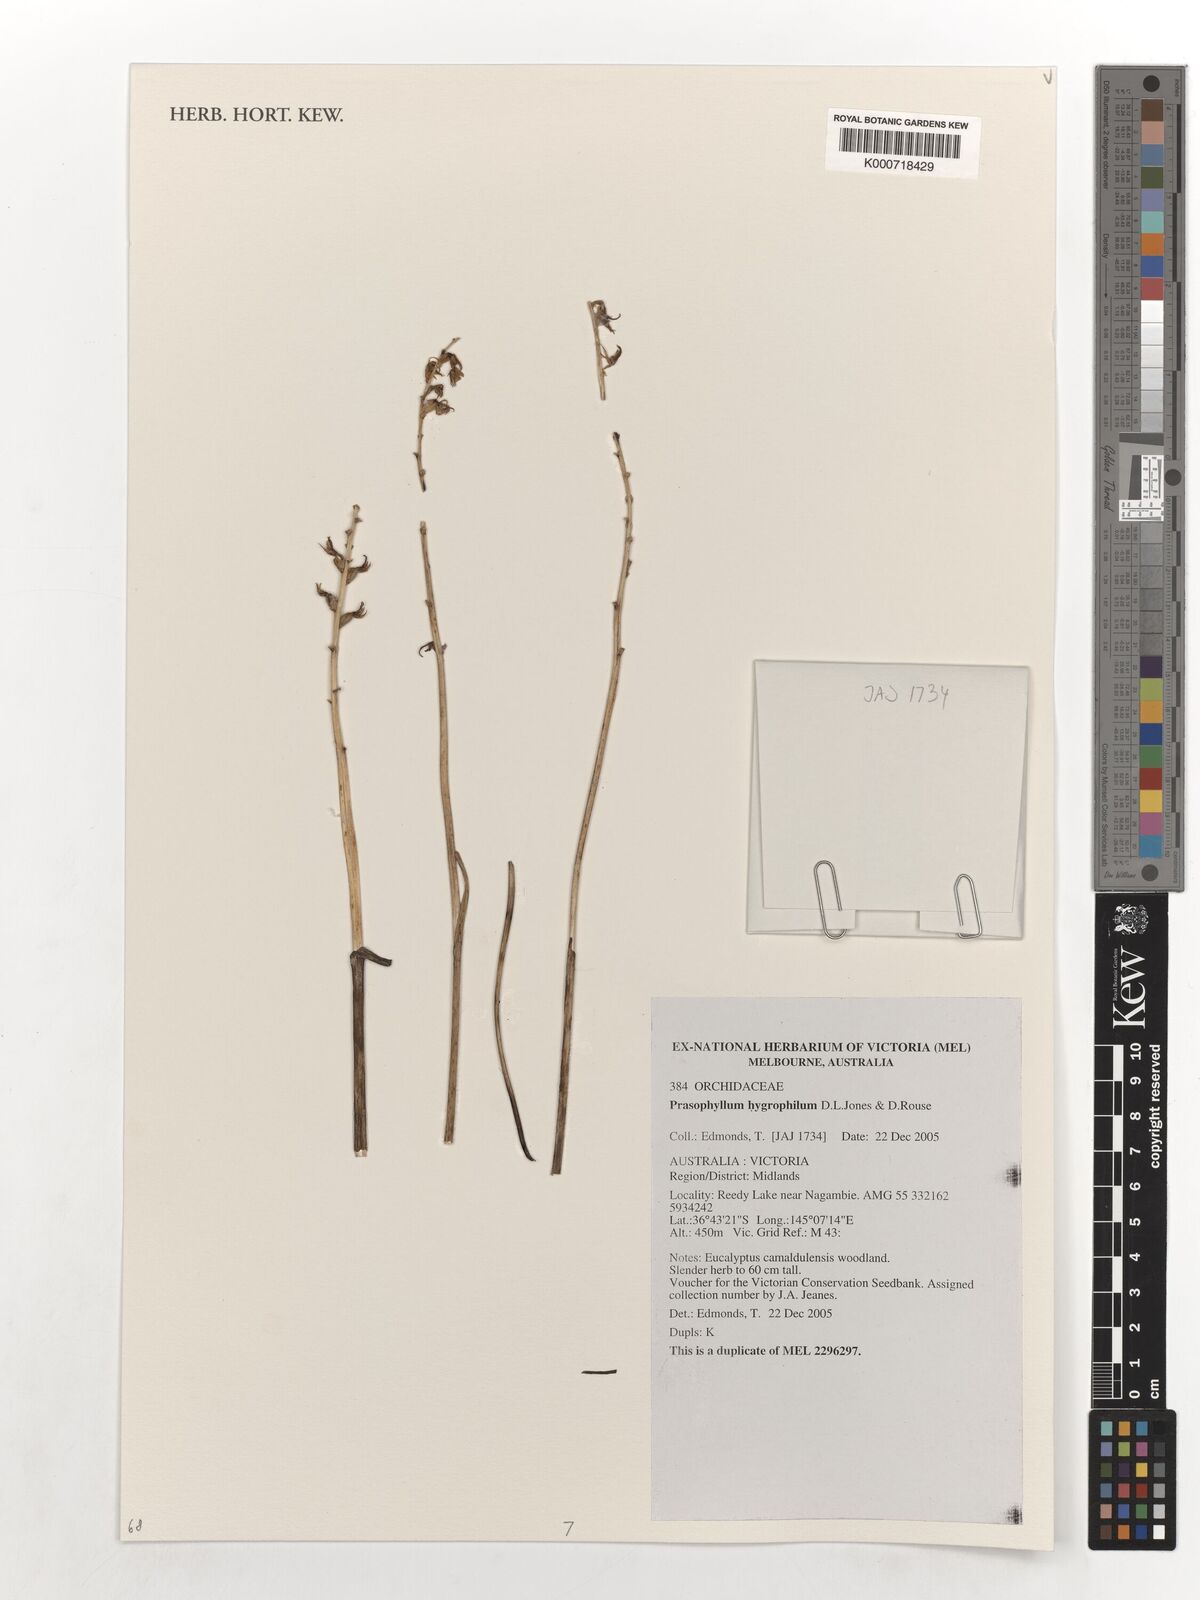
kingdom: Plantae
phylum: Tracheophyta
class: Liliopsida
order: Asparagales
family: Orchidaceae
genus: Prasophyllum
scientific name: Prasophyllum hygrophilum
